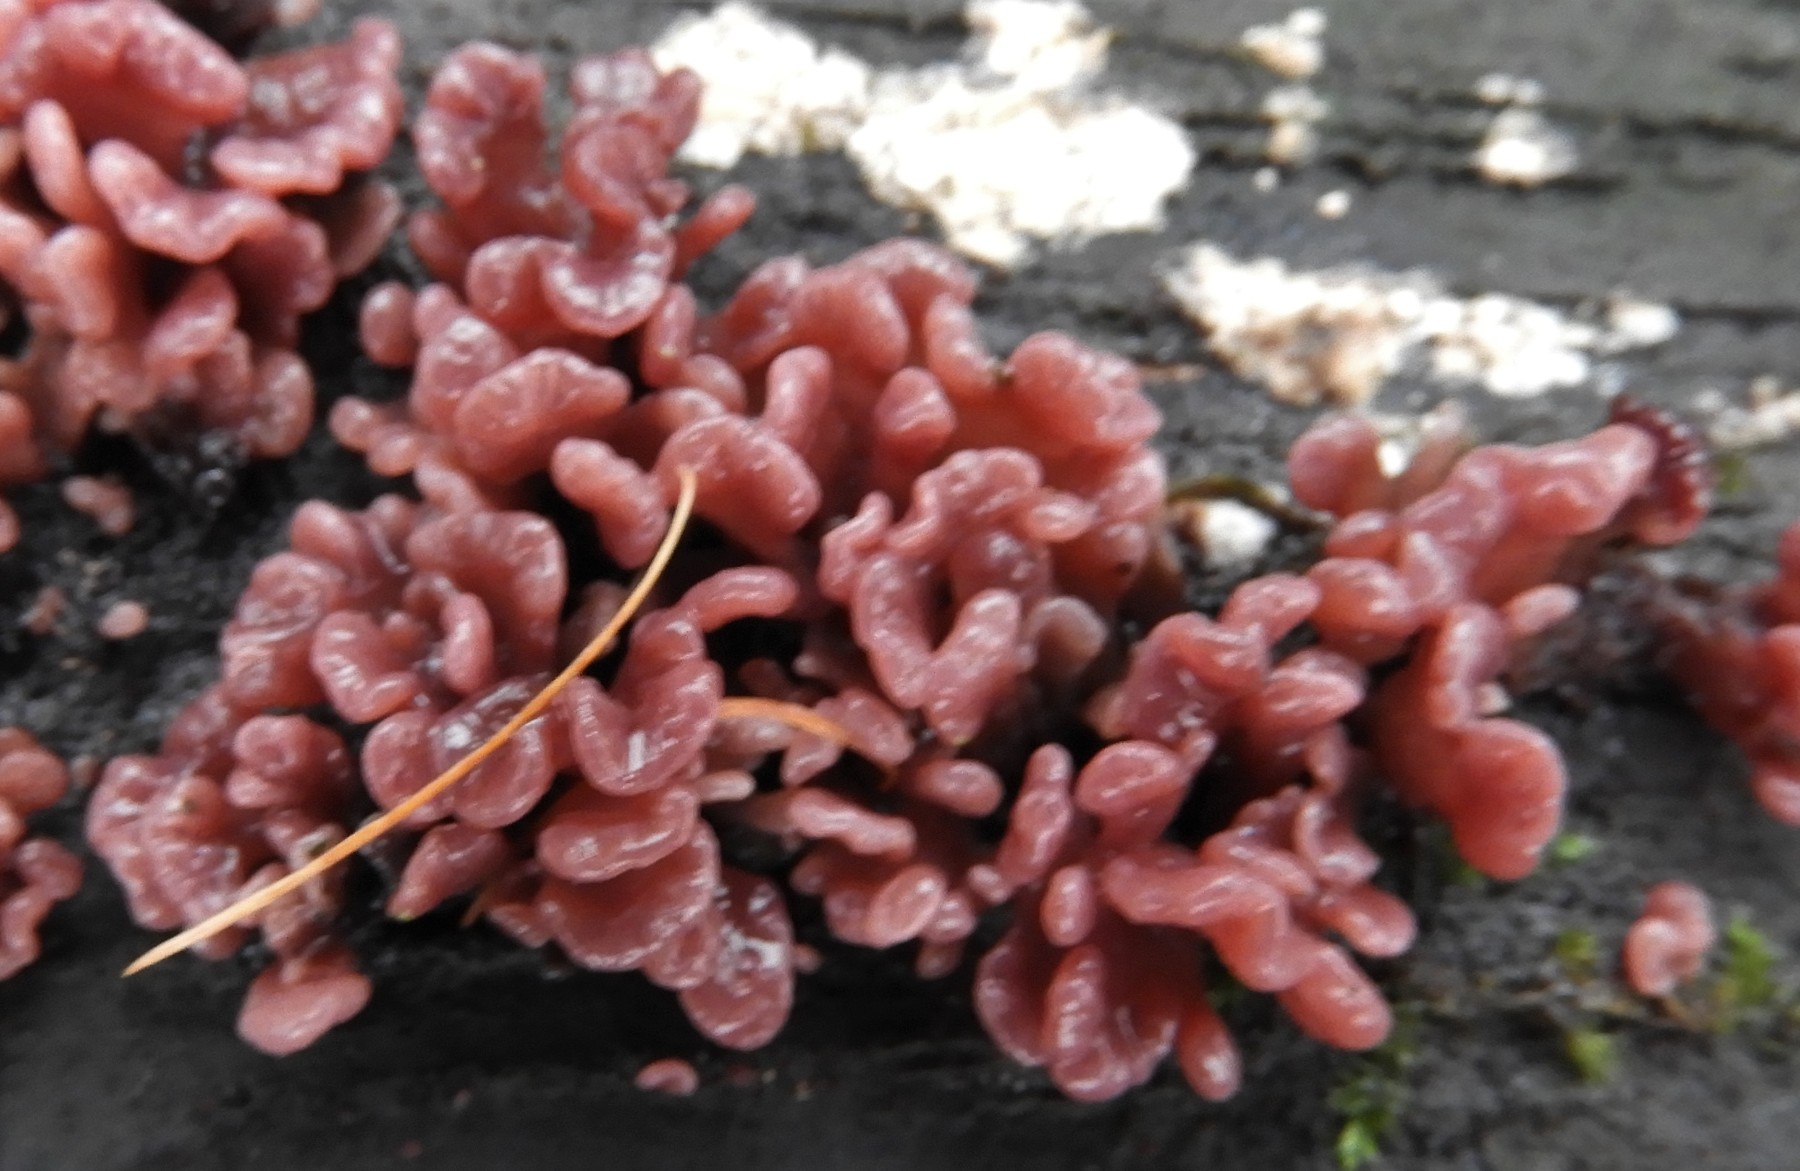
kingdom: Fungi
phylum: Ascomycota
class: Leotiomycetes
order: Helotiales
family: Gelatinodiscaceae
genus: Ascocoryne
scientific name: Ascocoryne sarcoides
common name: rødlilla sejskive
